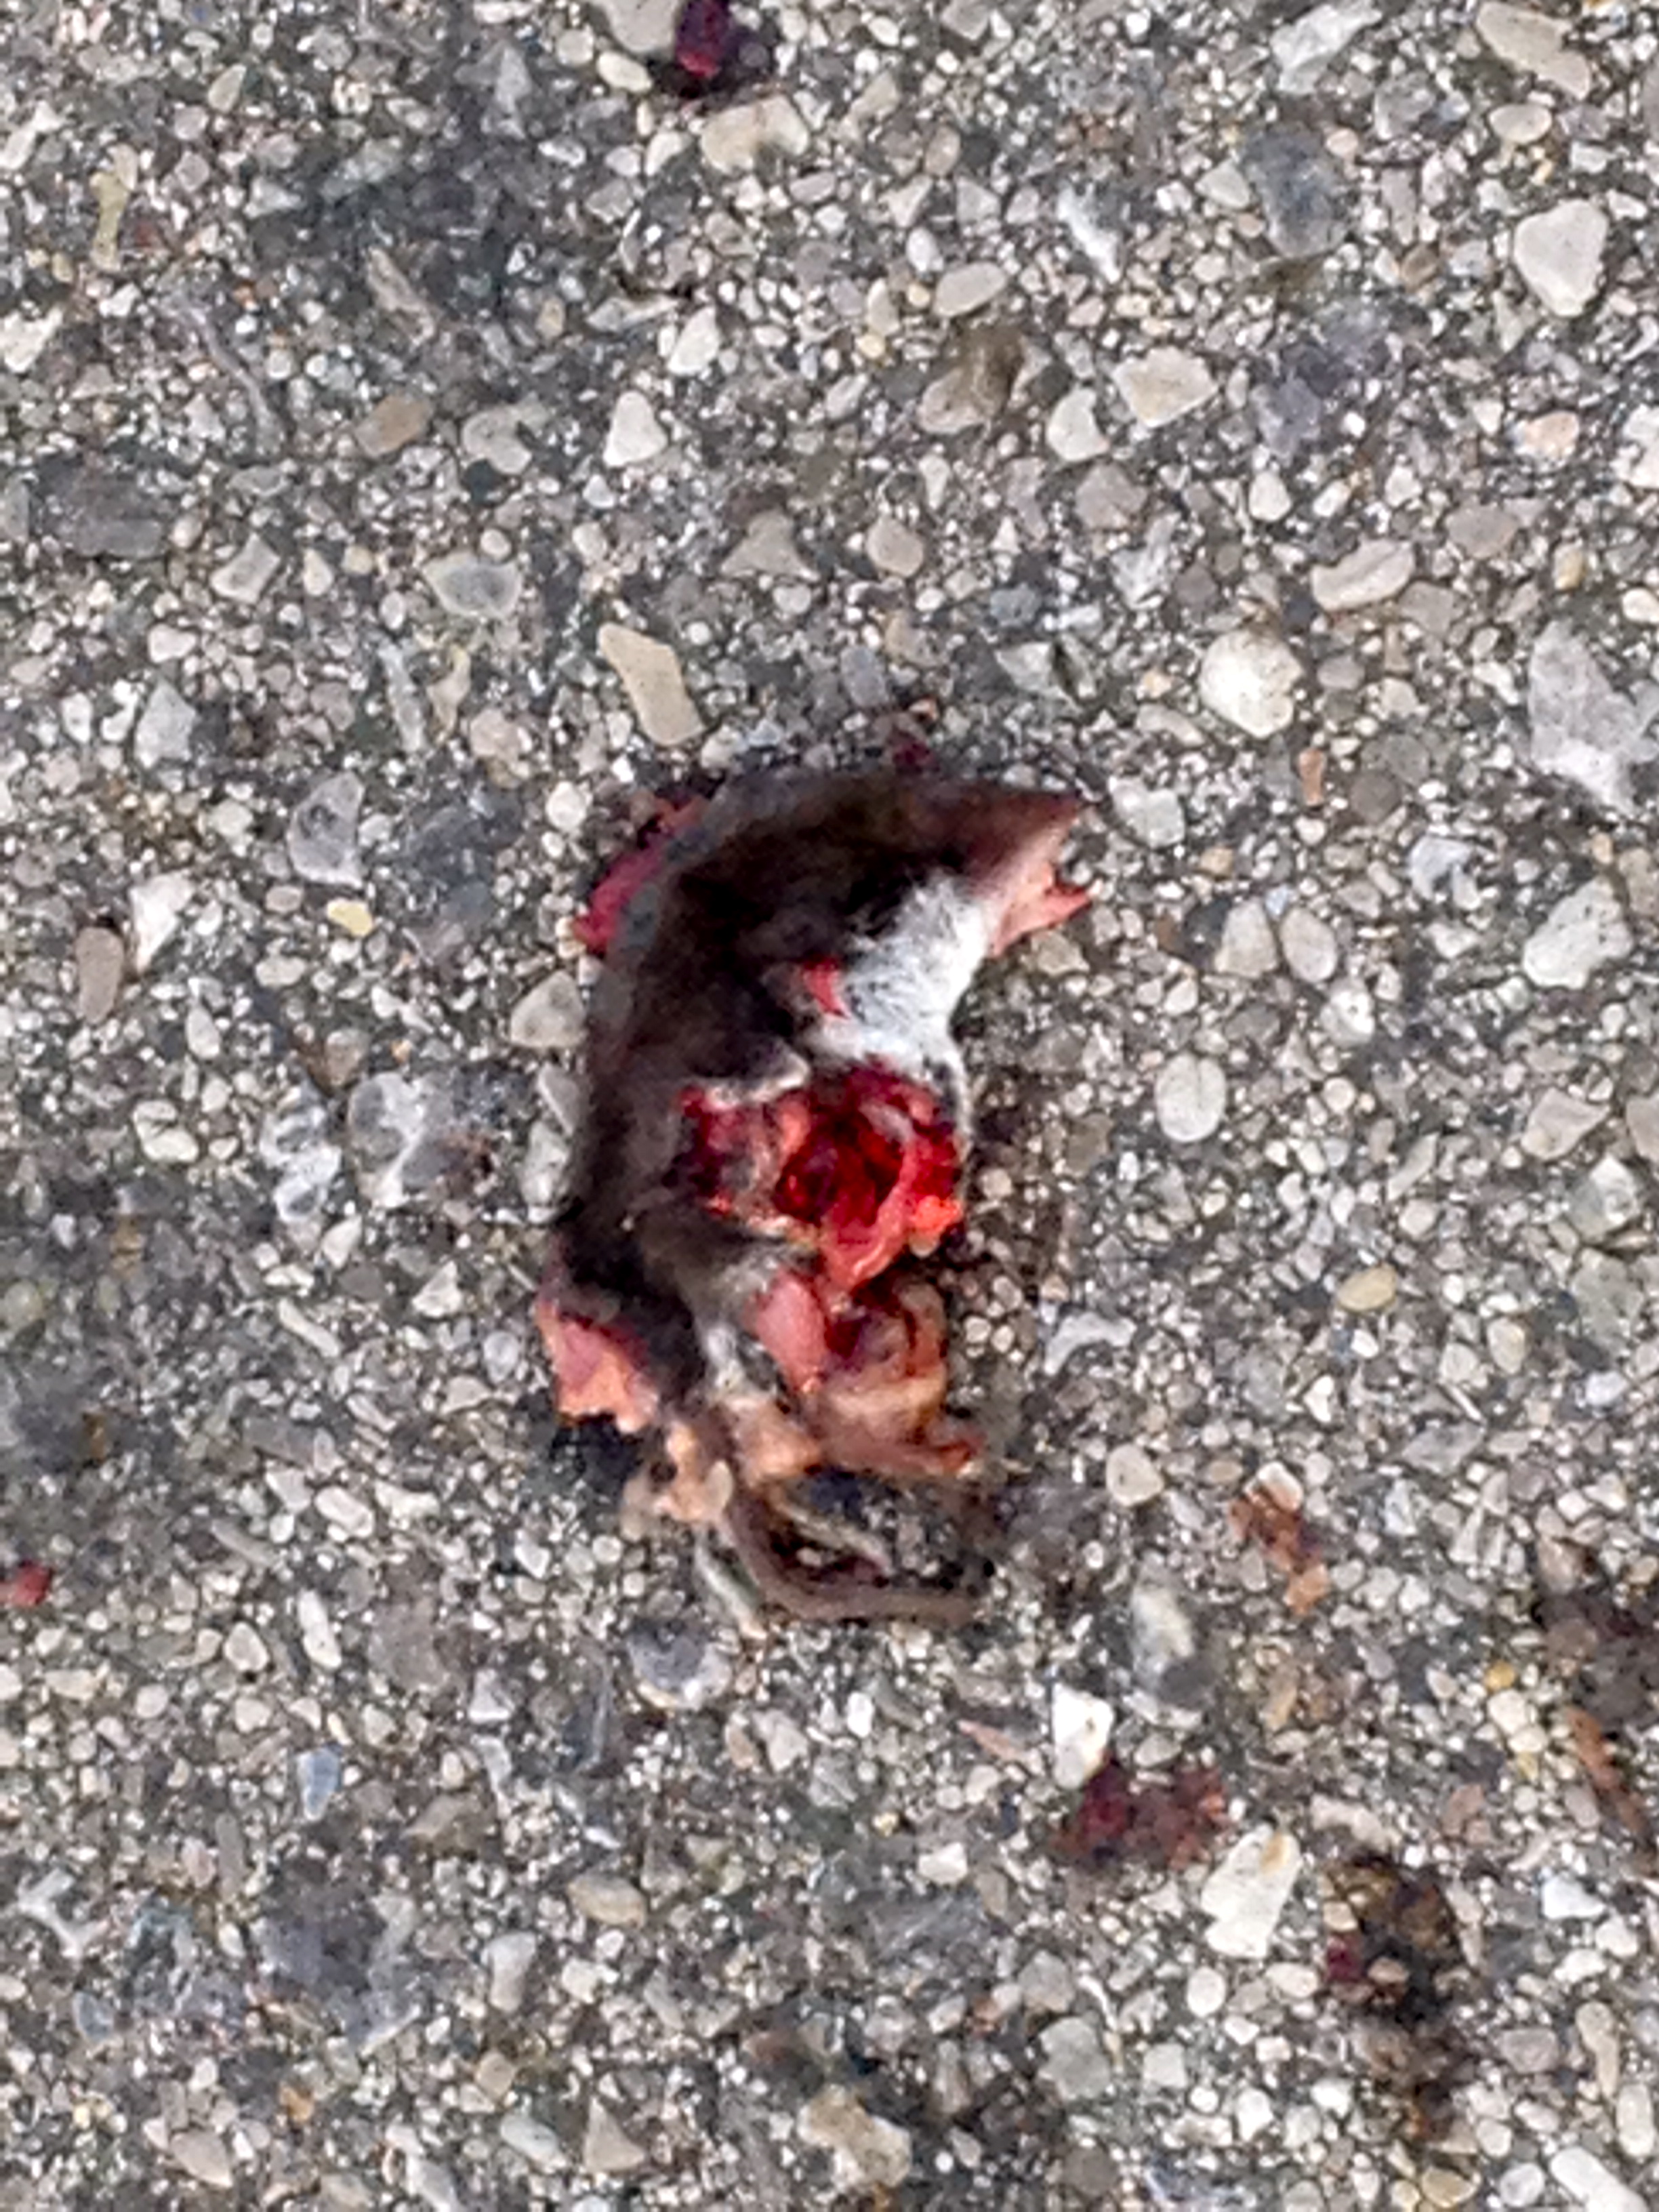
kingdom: Animalia
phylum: Chordata
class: Mammalia
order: Soricomorpha
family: Soricidae
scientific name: Soricidae
